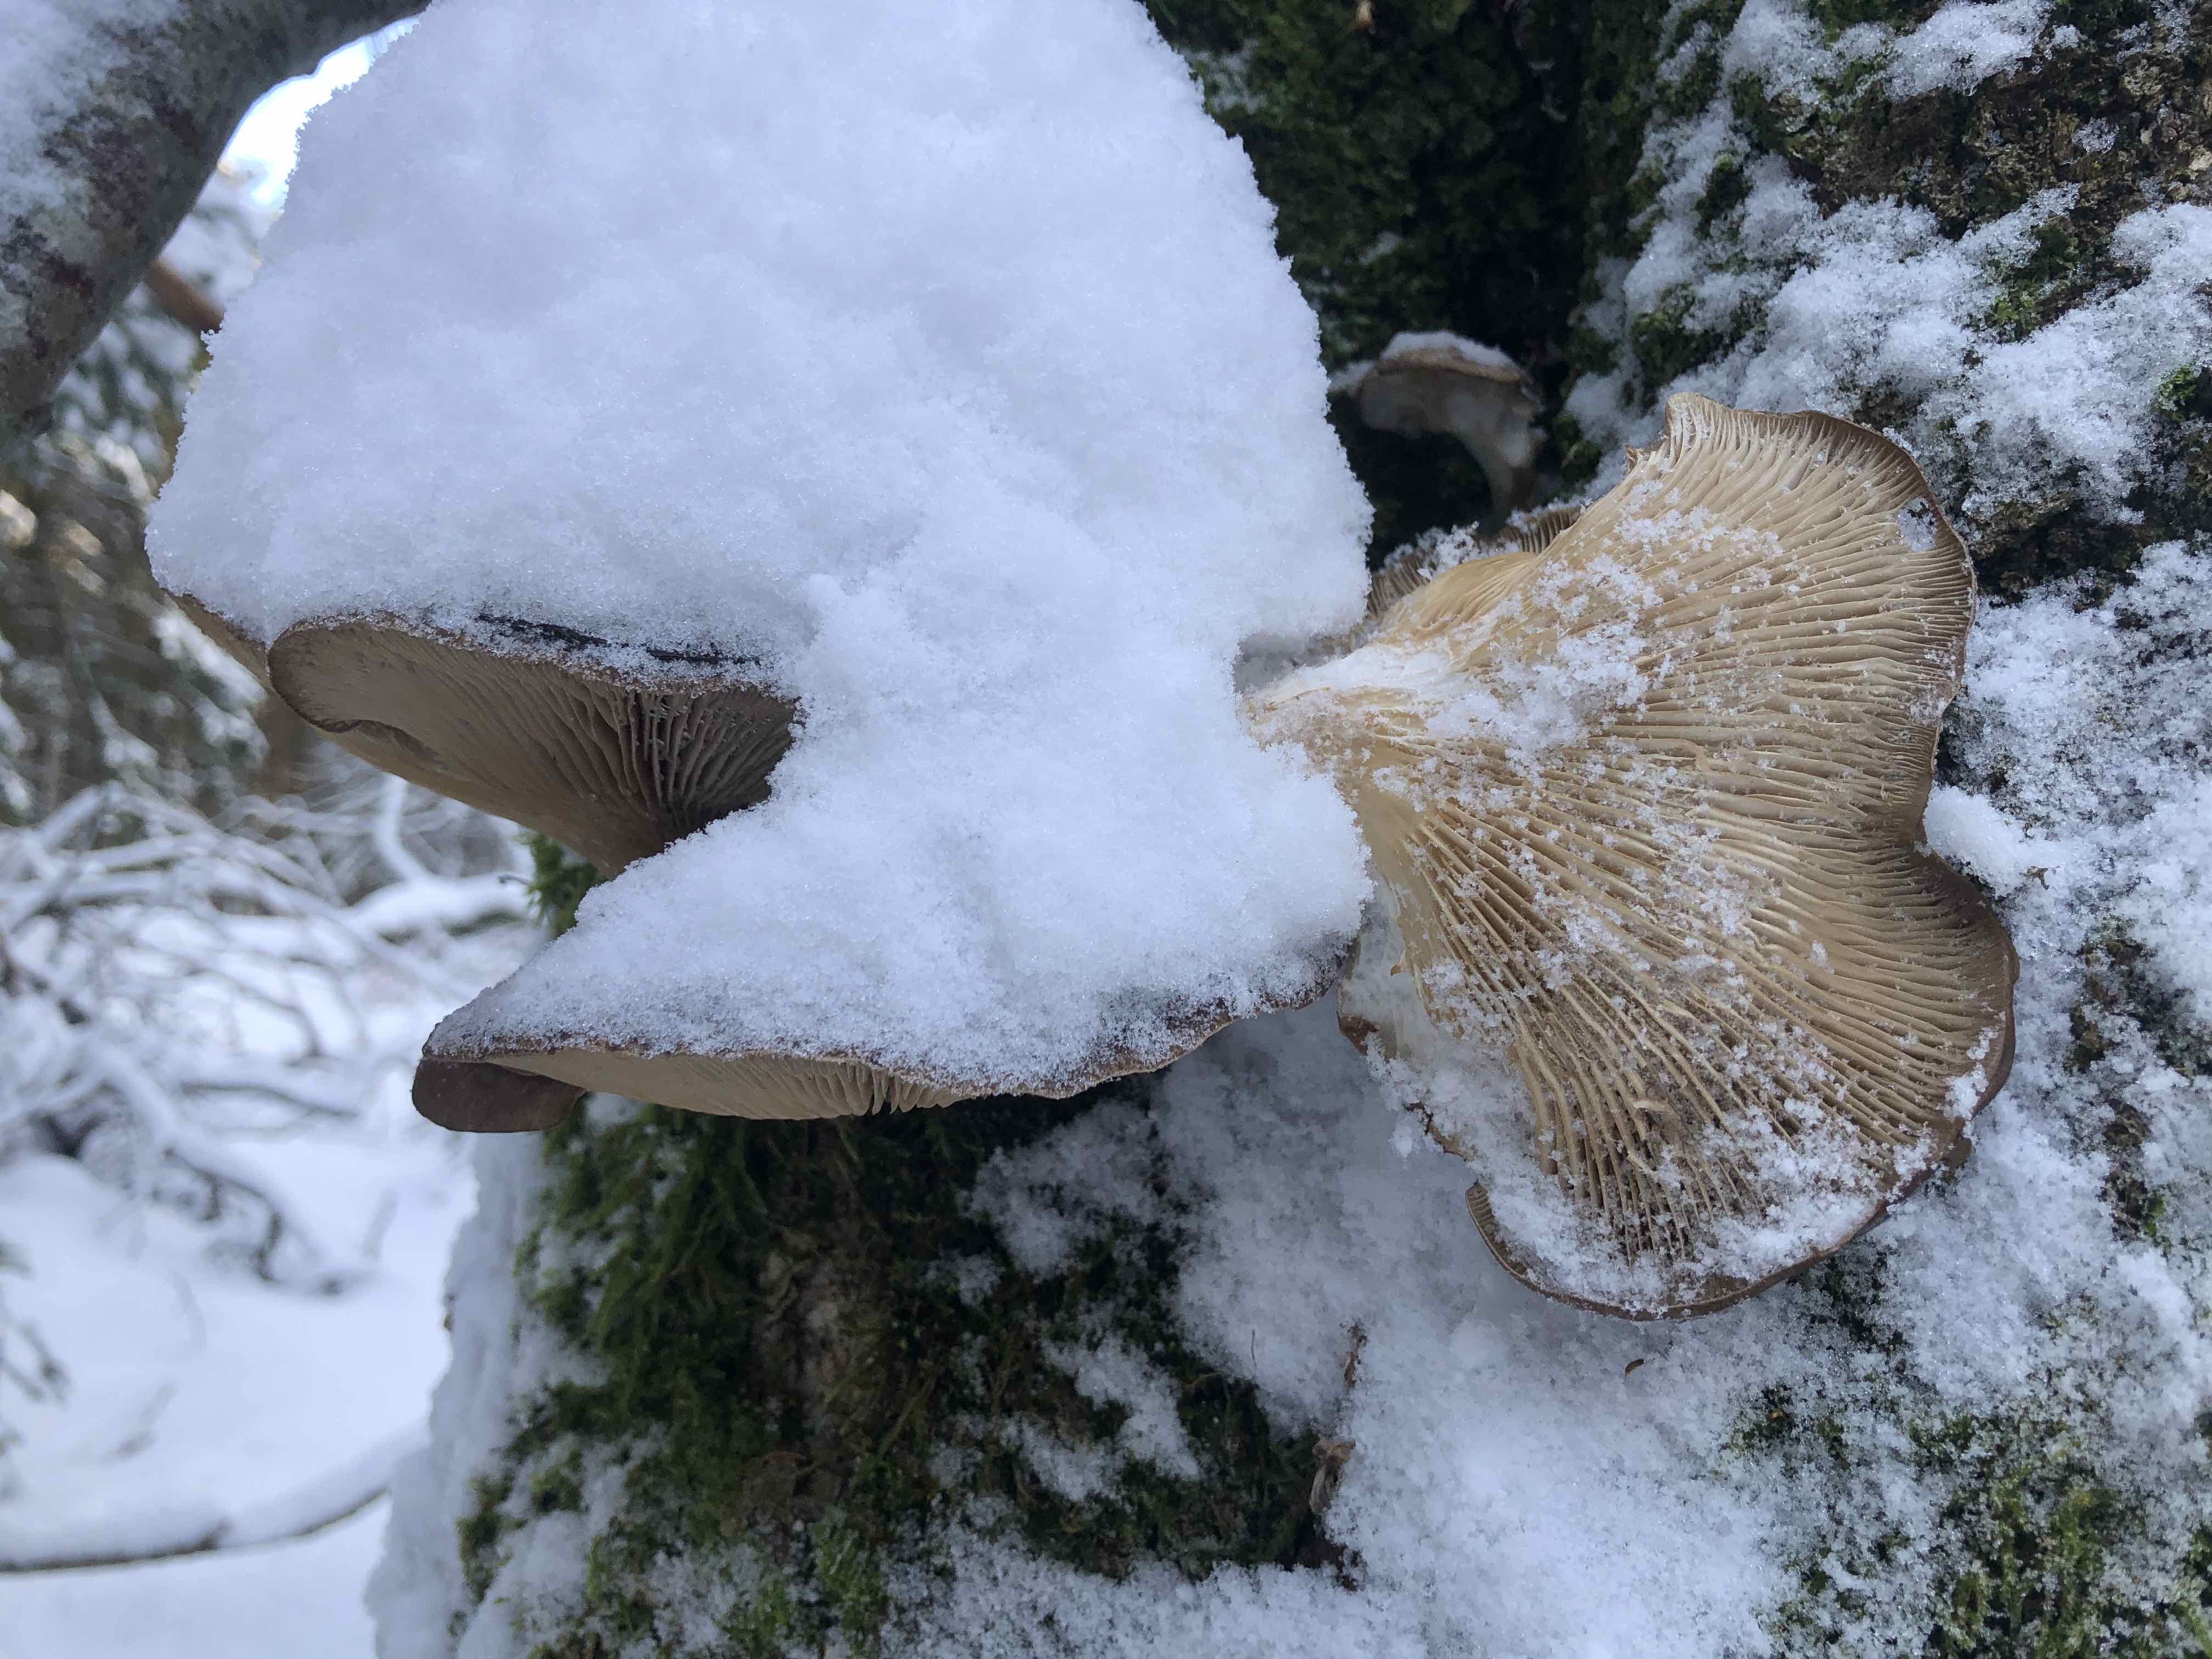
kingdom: Fungi
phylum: Basidiomycota
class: Agaricomycetes
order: Agaricales
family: Pleurotaceae
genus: Pleurotus
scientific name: Pleurotus ostreatus
